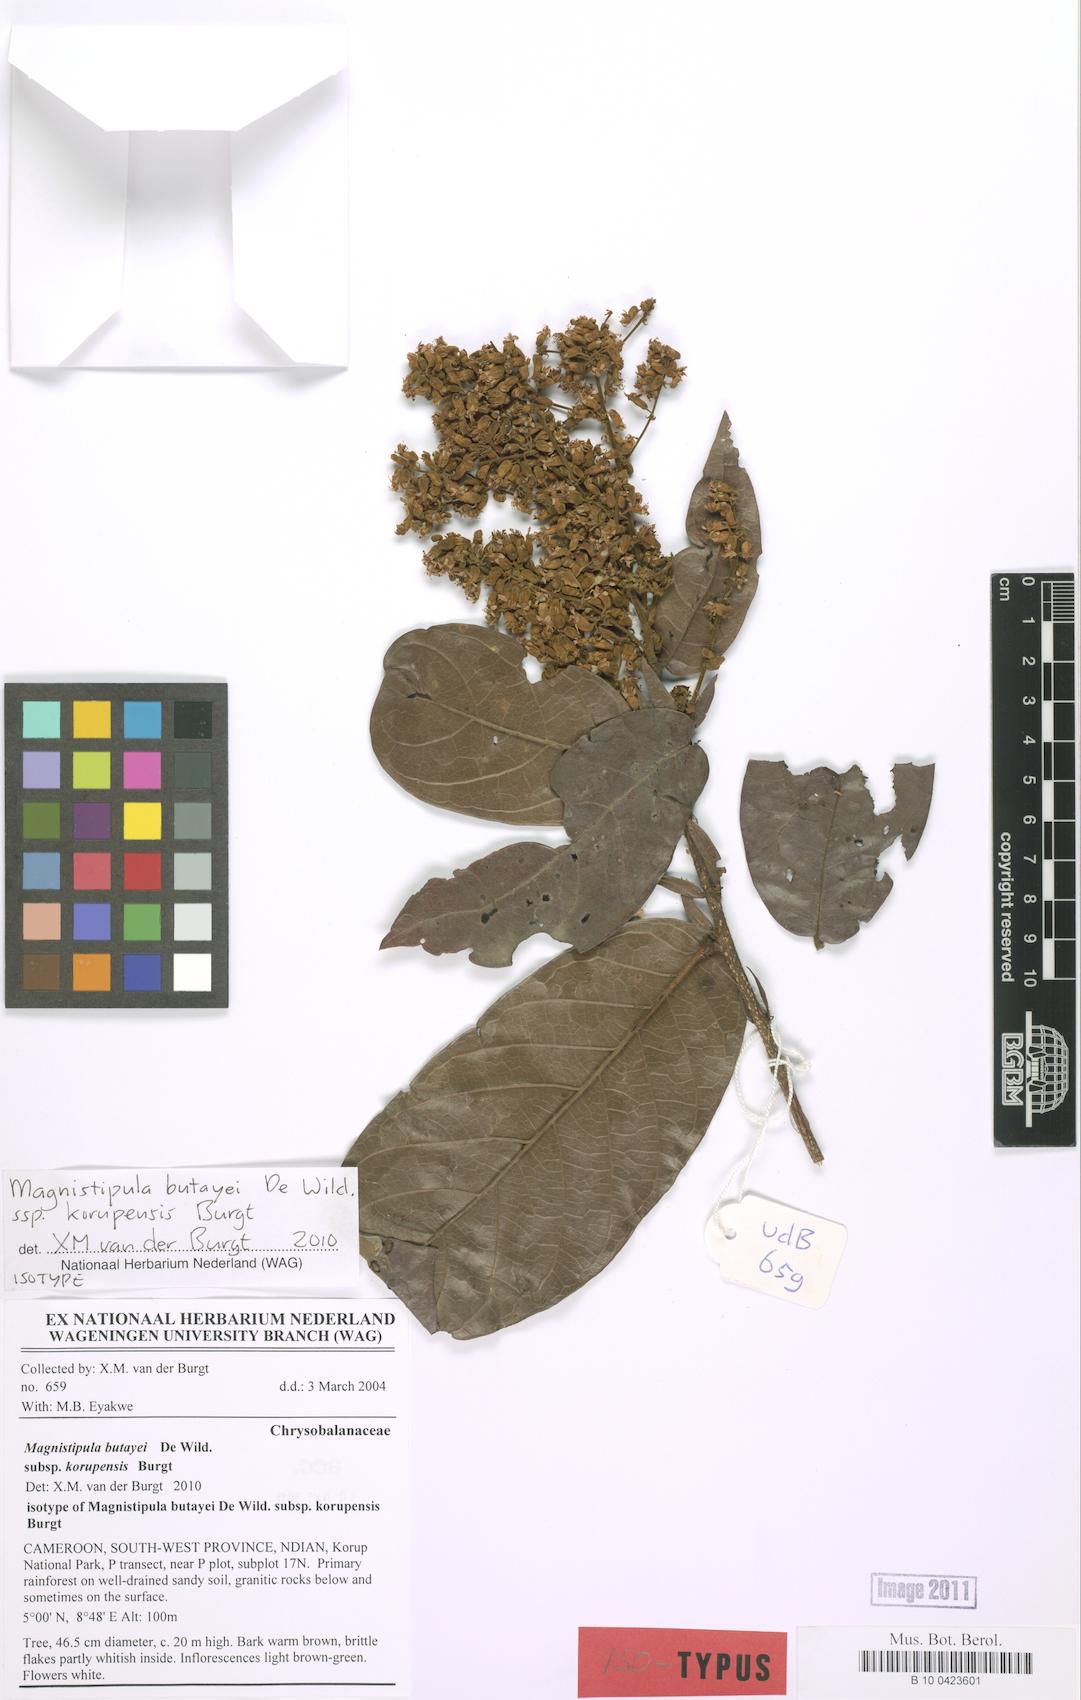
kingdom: Plantae
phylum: Tracheophyta
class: Magnoliopsida
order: Malpighiales
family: Chrysobalanaceae
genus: Magnistipula
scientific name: Magnistipula butayei
